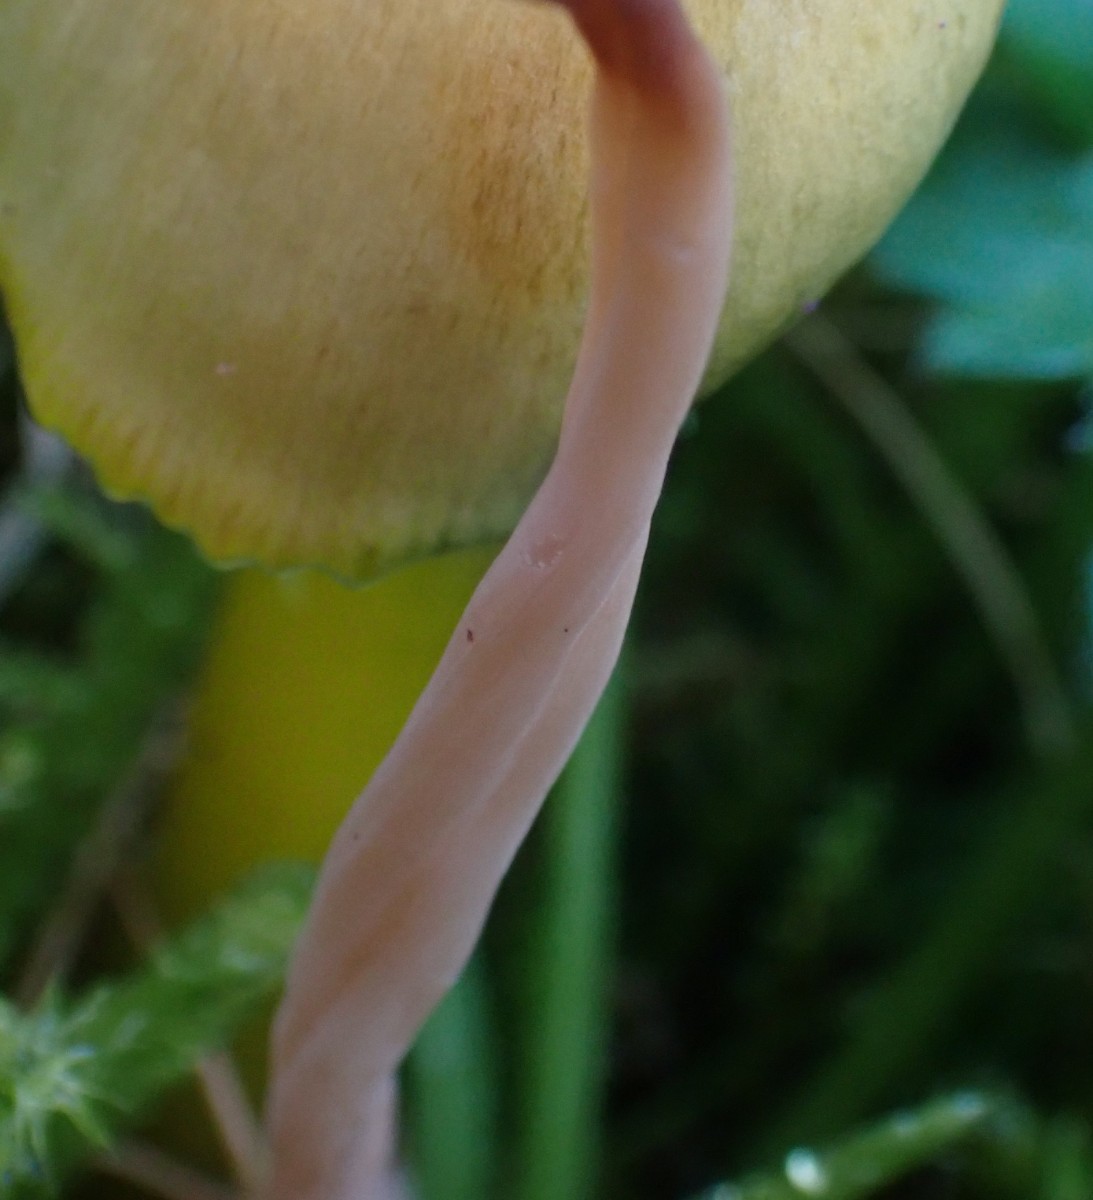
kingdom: Fungi
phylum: Basidiomycota
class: Agaricomycetes
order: Agaricales
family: Clavariaceae
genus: Clavaria
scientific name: Clavaria incarnata
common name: kødrød køllesvamp
